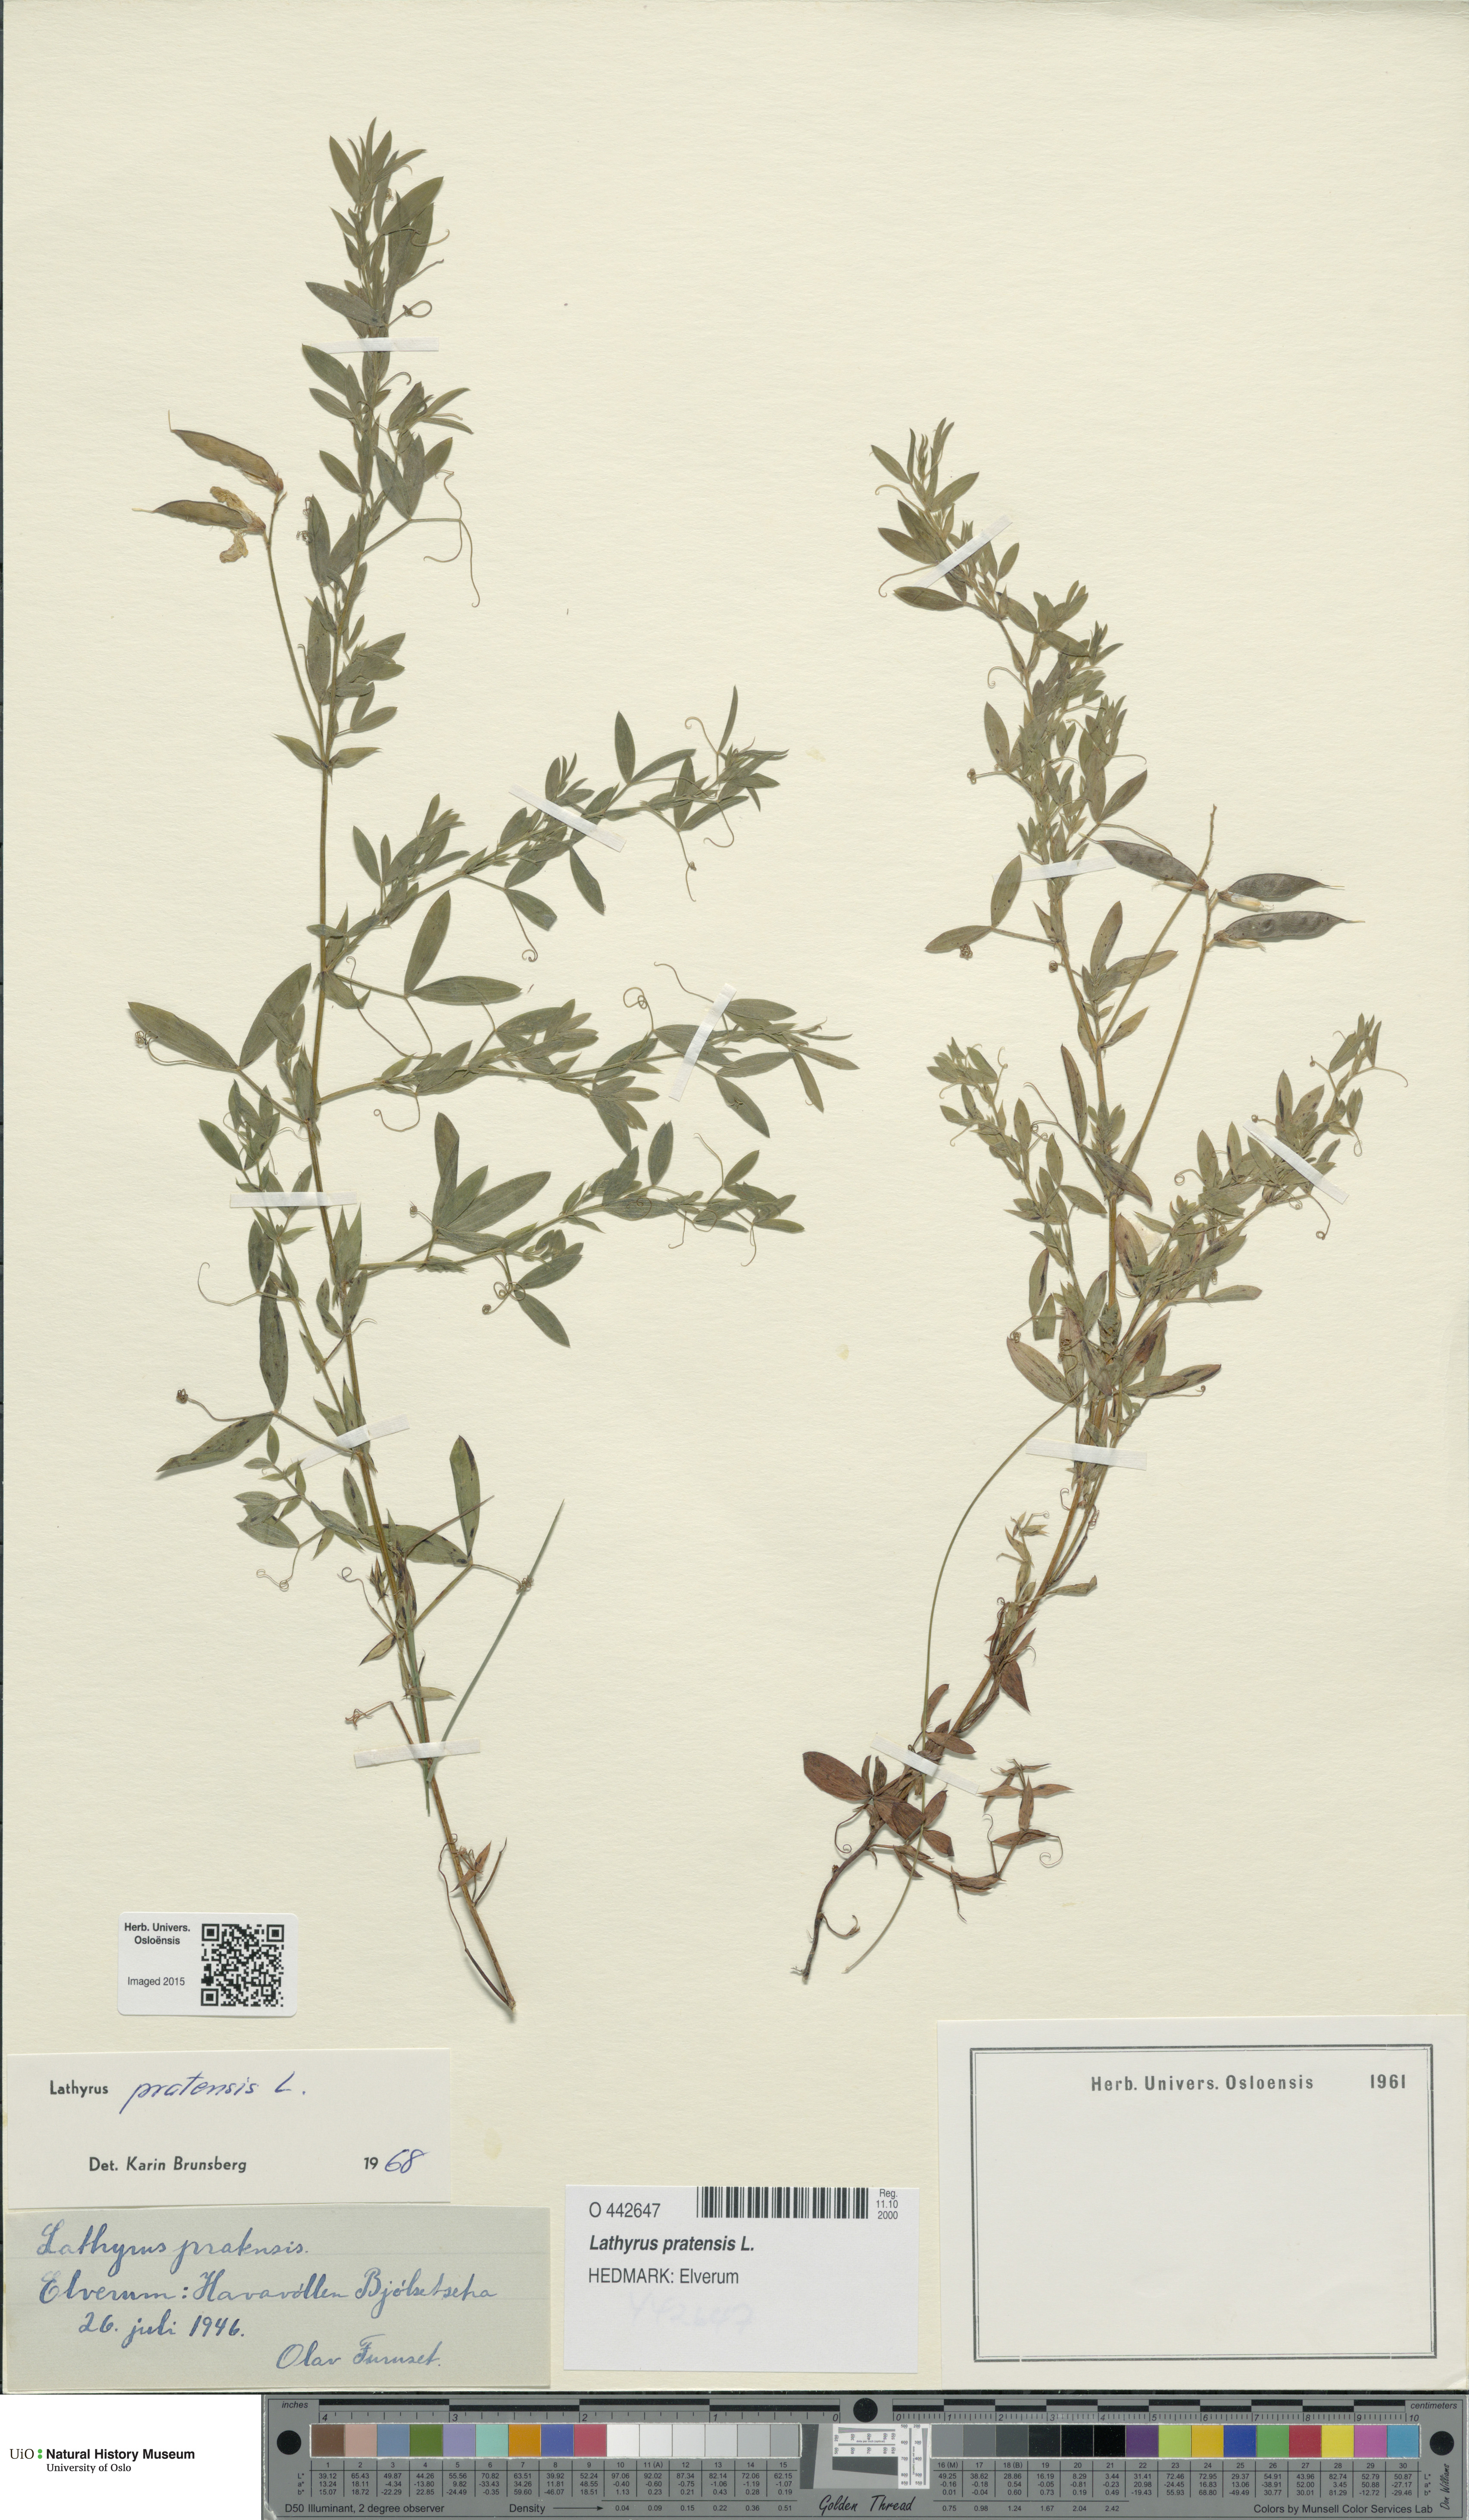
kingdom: Plantae
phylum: Tracheophyta
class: Magnoliopsida
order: Fabales
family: Fabaceae
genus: Lathyrus
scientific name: Lathyrus pratensis
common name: Meadow vetchling
